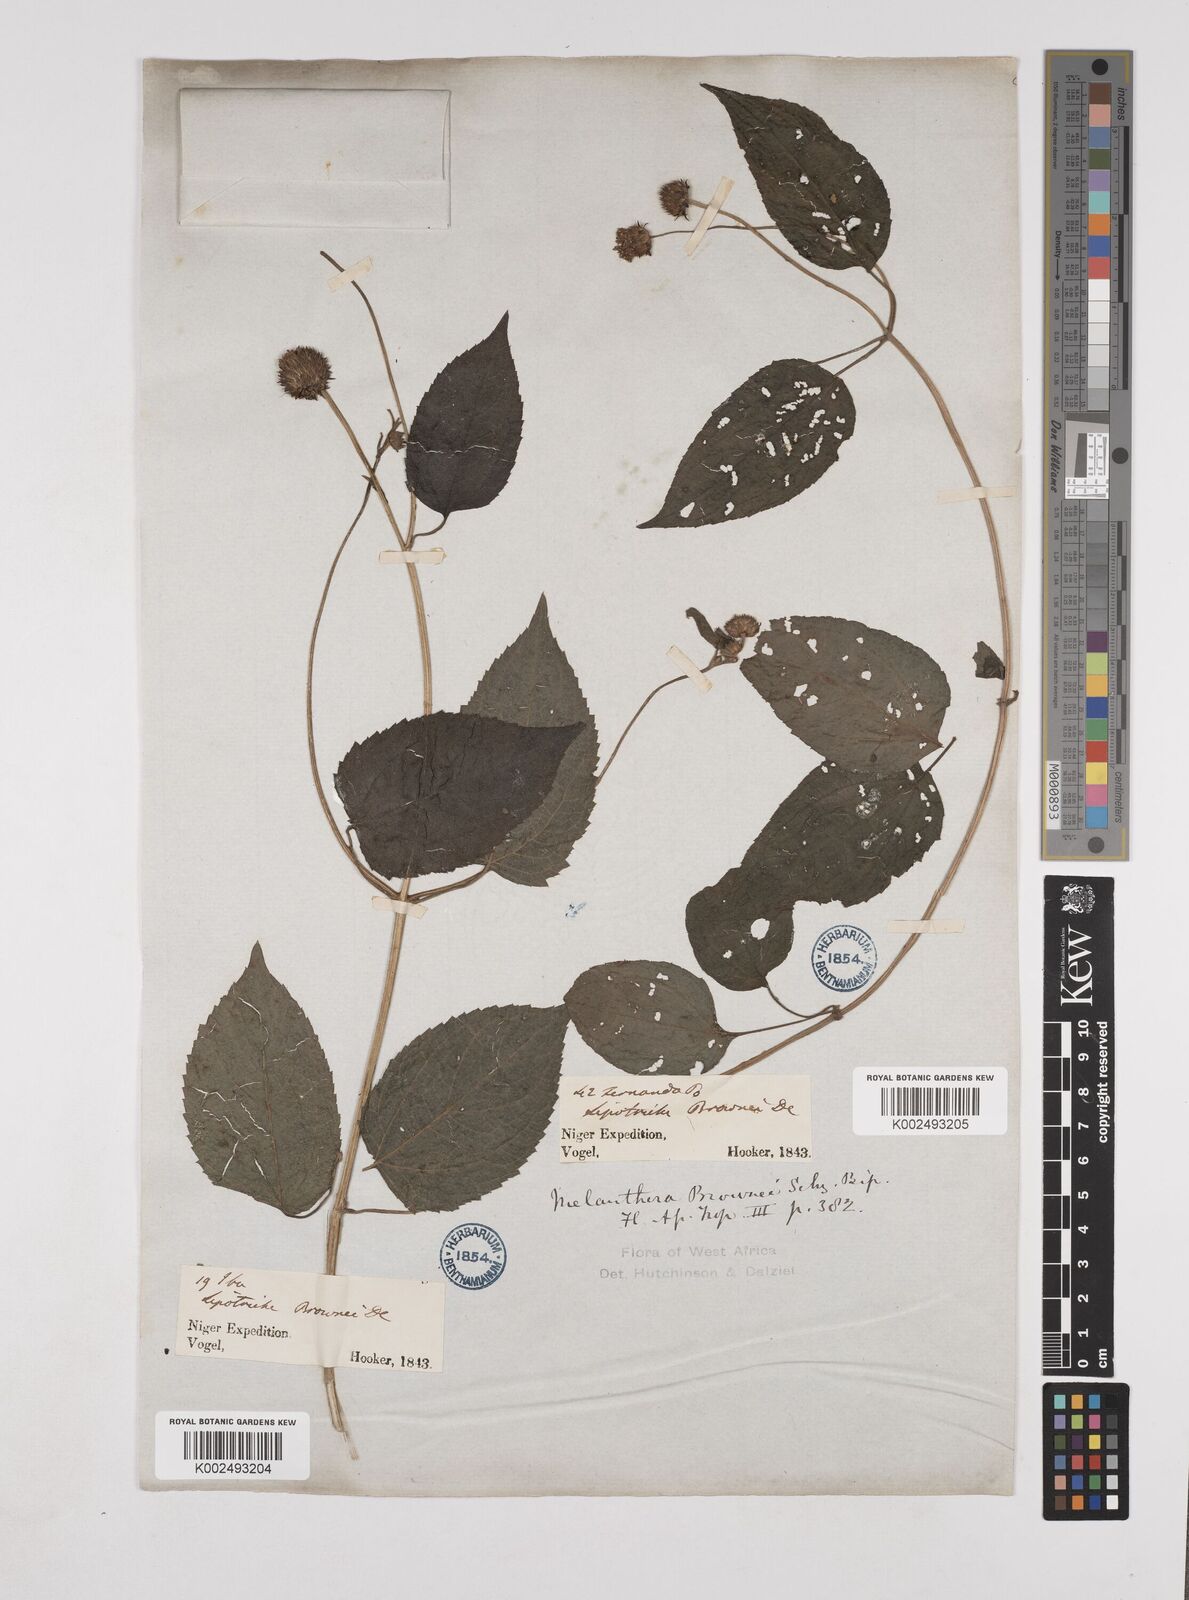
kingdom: Plantae
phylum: Tracheophyta
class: Magnoliopsida
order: Asterales
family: Asteraceae
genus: Lipotriche
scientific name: Lipotriche scandens
